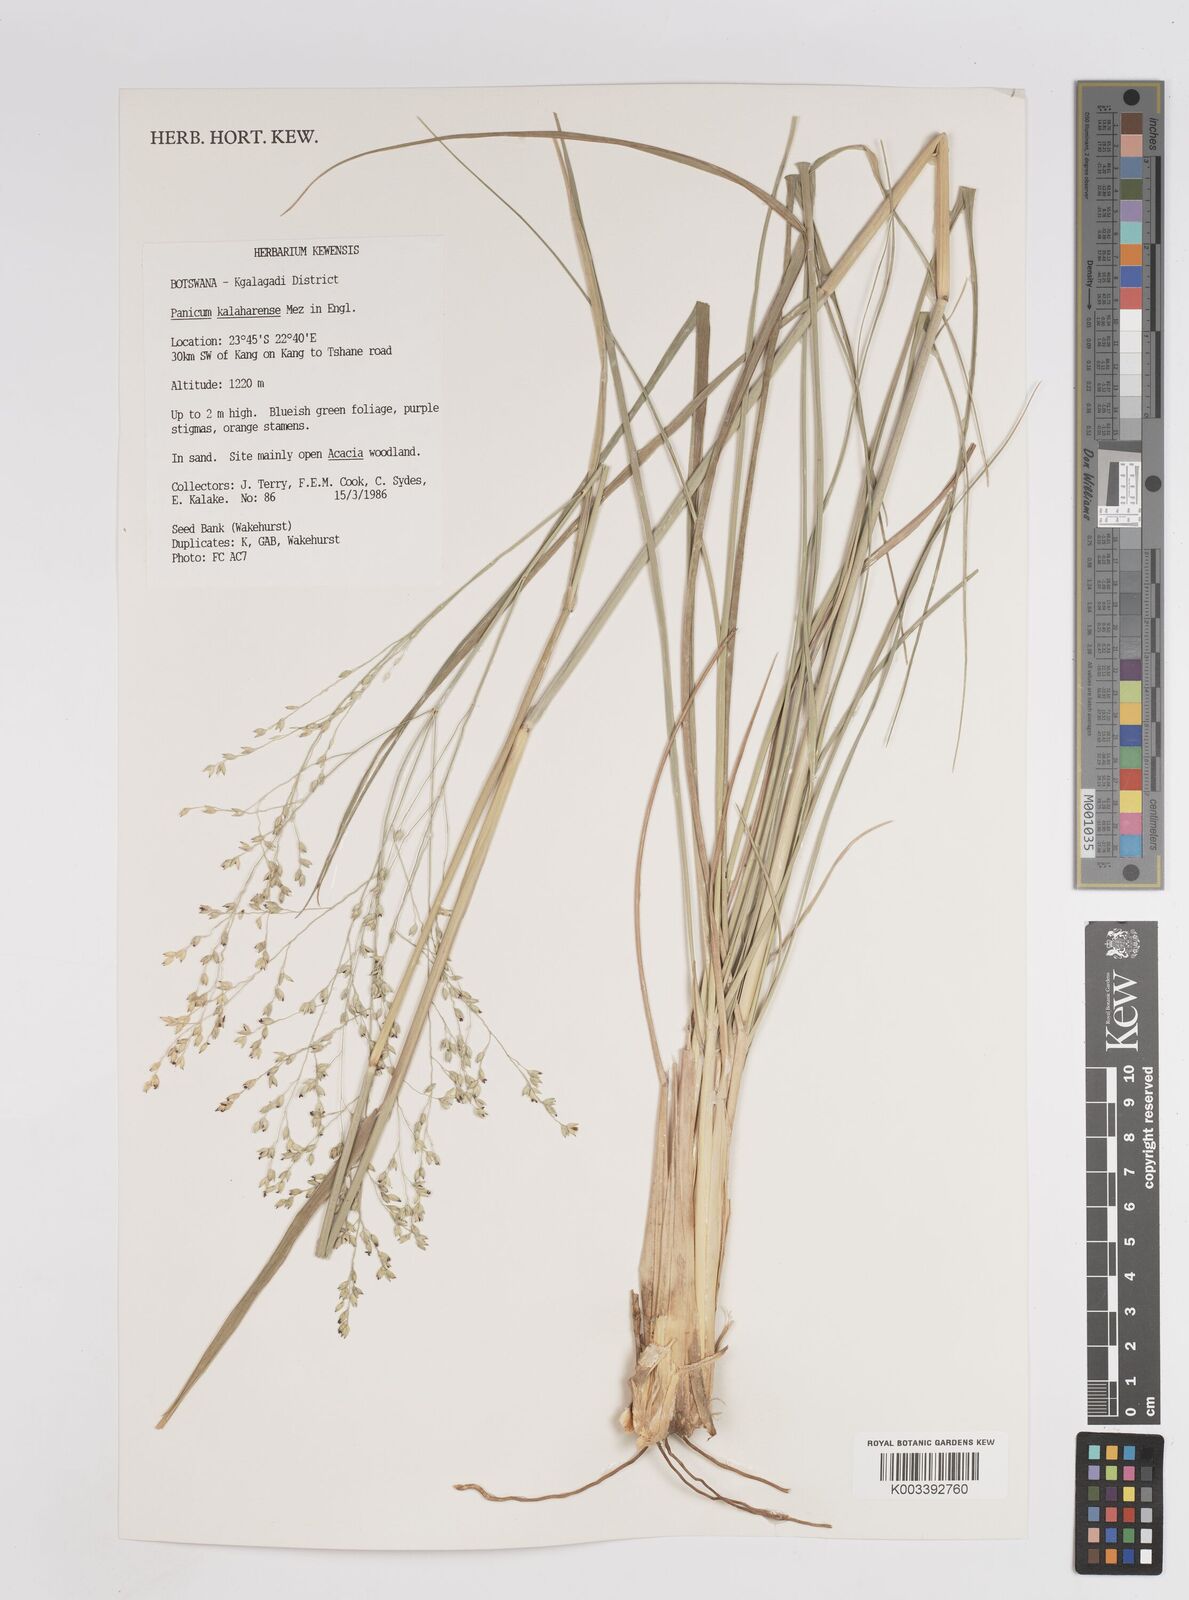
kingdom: Plantae
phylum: Tracheophyta
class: Liliopsida
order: Poales
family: Poaceae
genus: Panicum
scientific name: Panicum kalaharense
